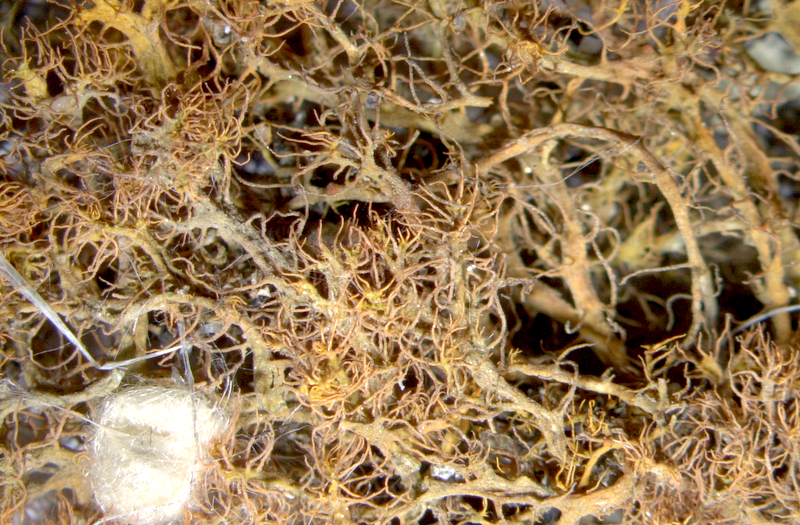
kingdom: Fungi
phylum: Ascomycota
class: Lecanoromycetes
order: Teloschistales
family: Teloschistaceae
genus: Teloschistes
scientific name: Teloschistes capensis
